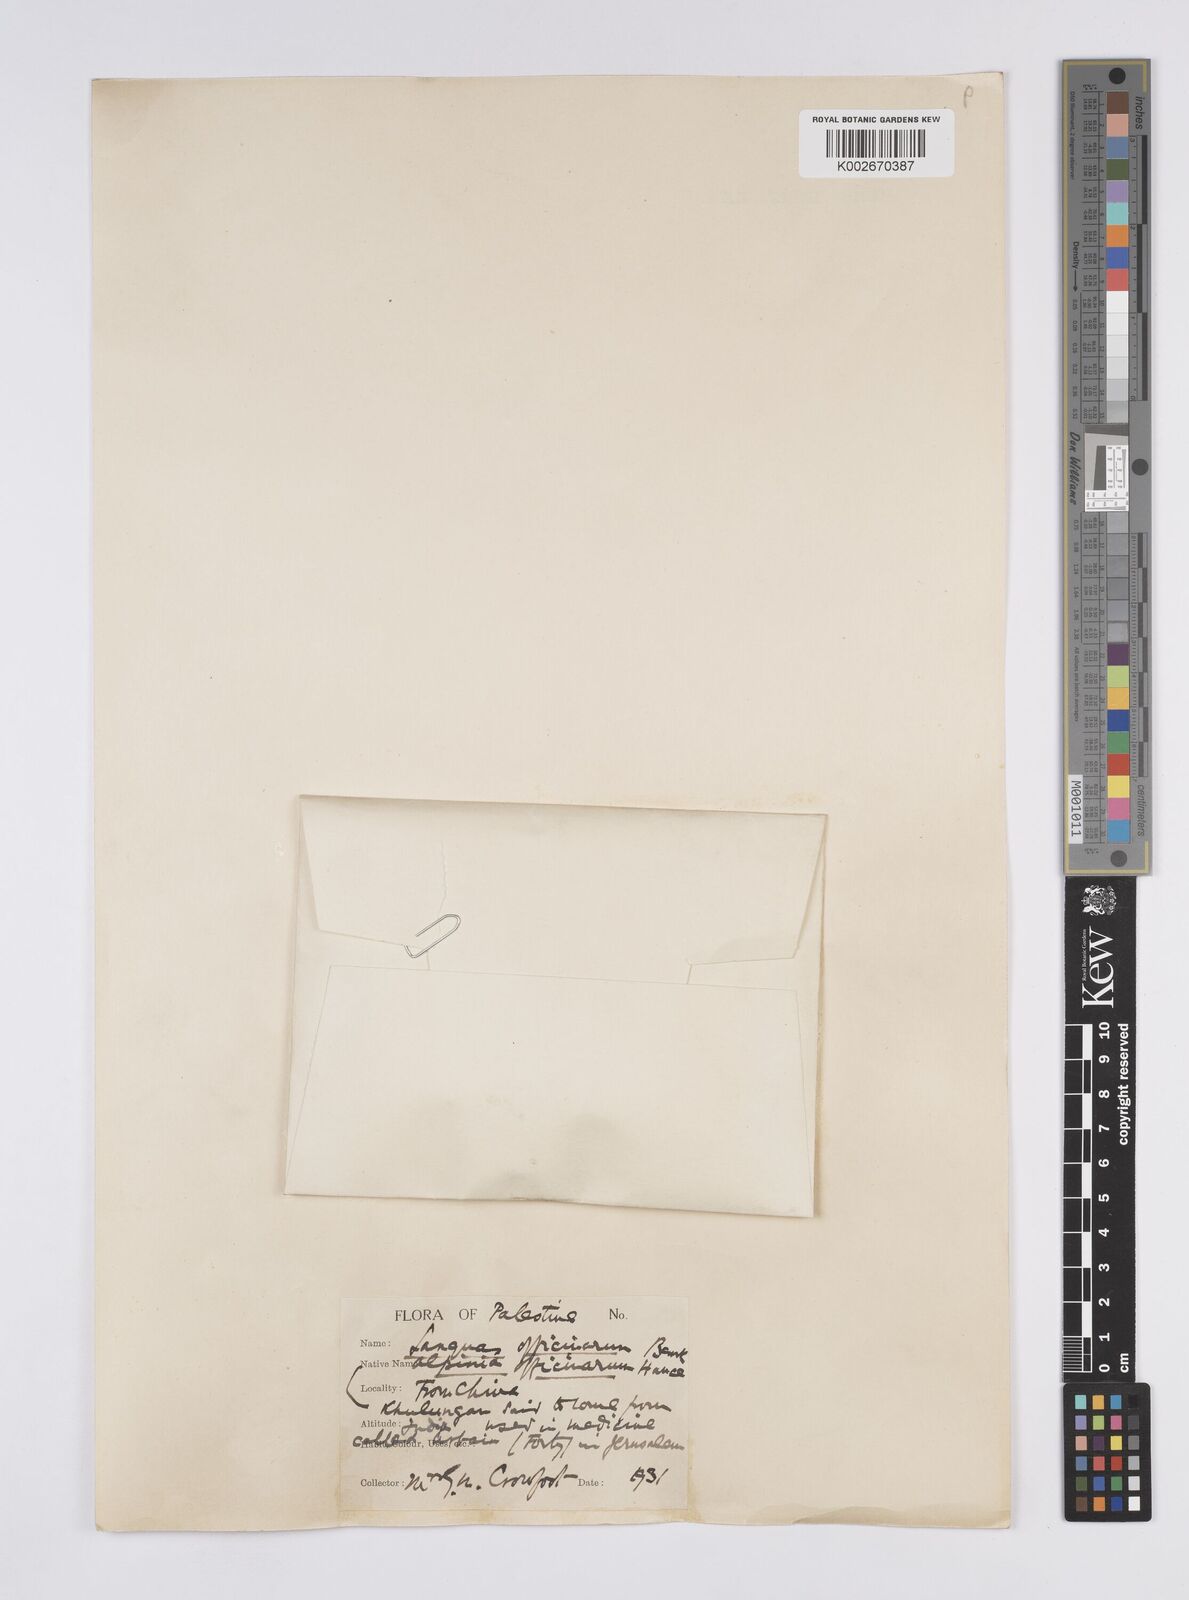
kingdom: Plantae
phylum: Tracheophyta
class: Liliopsida
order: Zingiberales
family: Zingiberaceae
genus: Alpinia
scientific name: Alpinia officinarum
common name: Chinese-ginger
